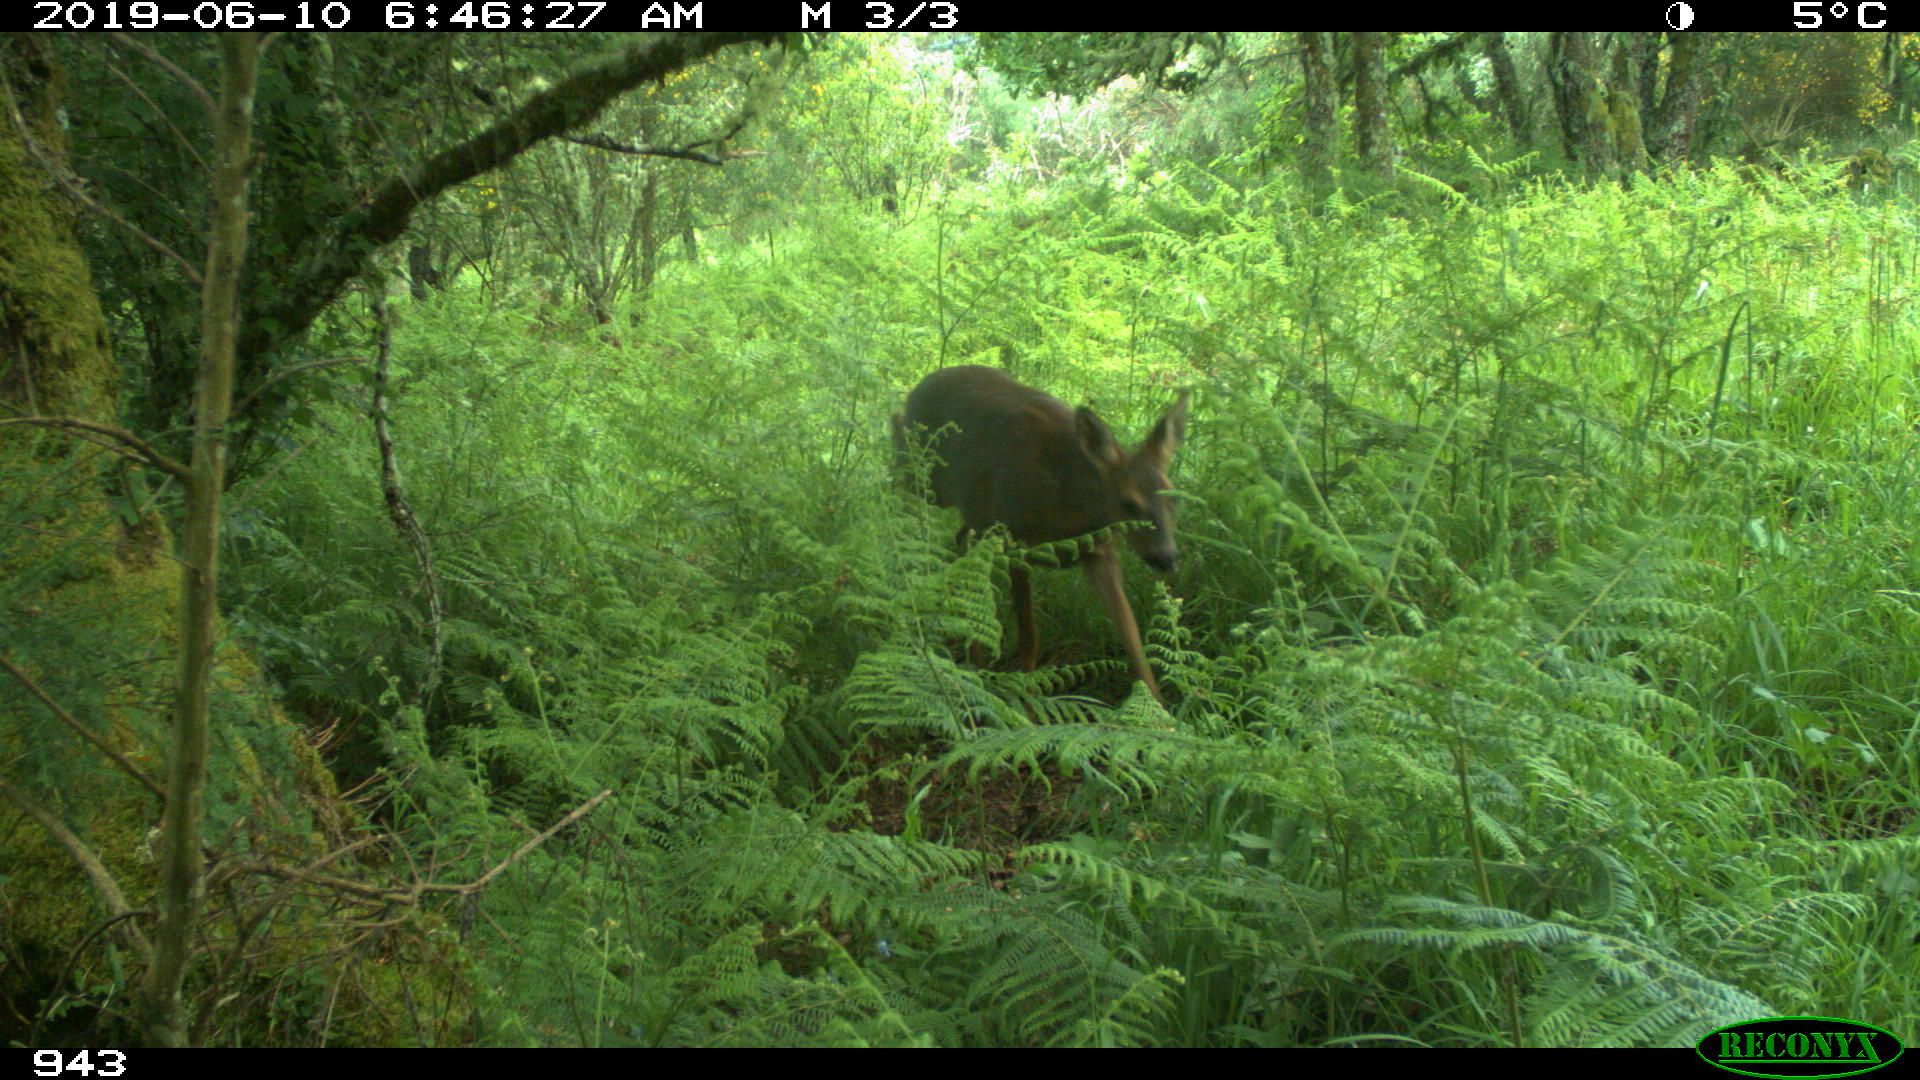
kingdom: Animalia
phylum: Chordata
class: Mammalia
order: Artiodactyla
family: Cervidae
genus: Capreolus
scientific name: Capreolus capreolus
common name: Western roe deer
